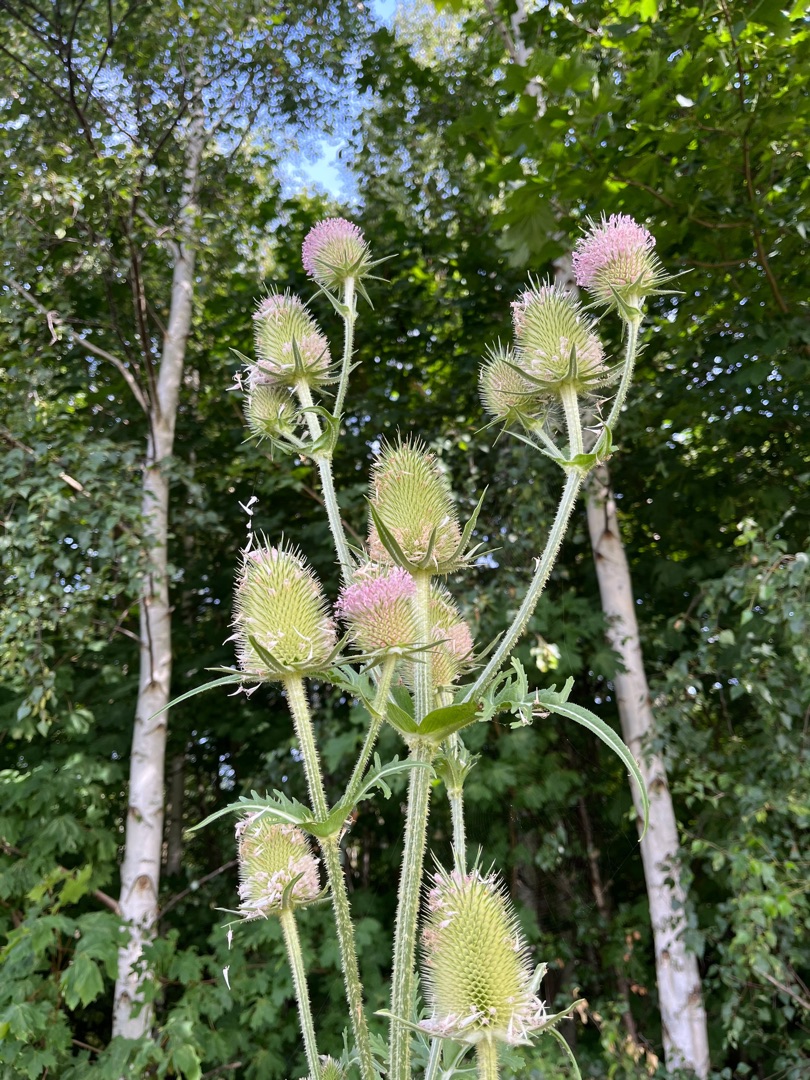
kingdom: Plantae
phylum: Tracheophyta
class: Magnoliopsida
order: Dipsacales
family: Caprifoliaceae
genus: Dipsacus
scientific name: Dipsacus laciniatus
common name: Fliget kartebolle
